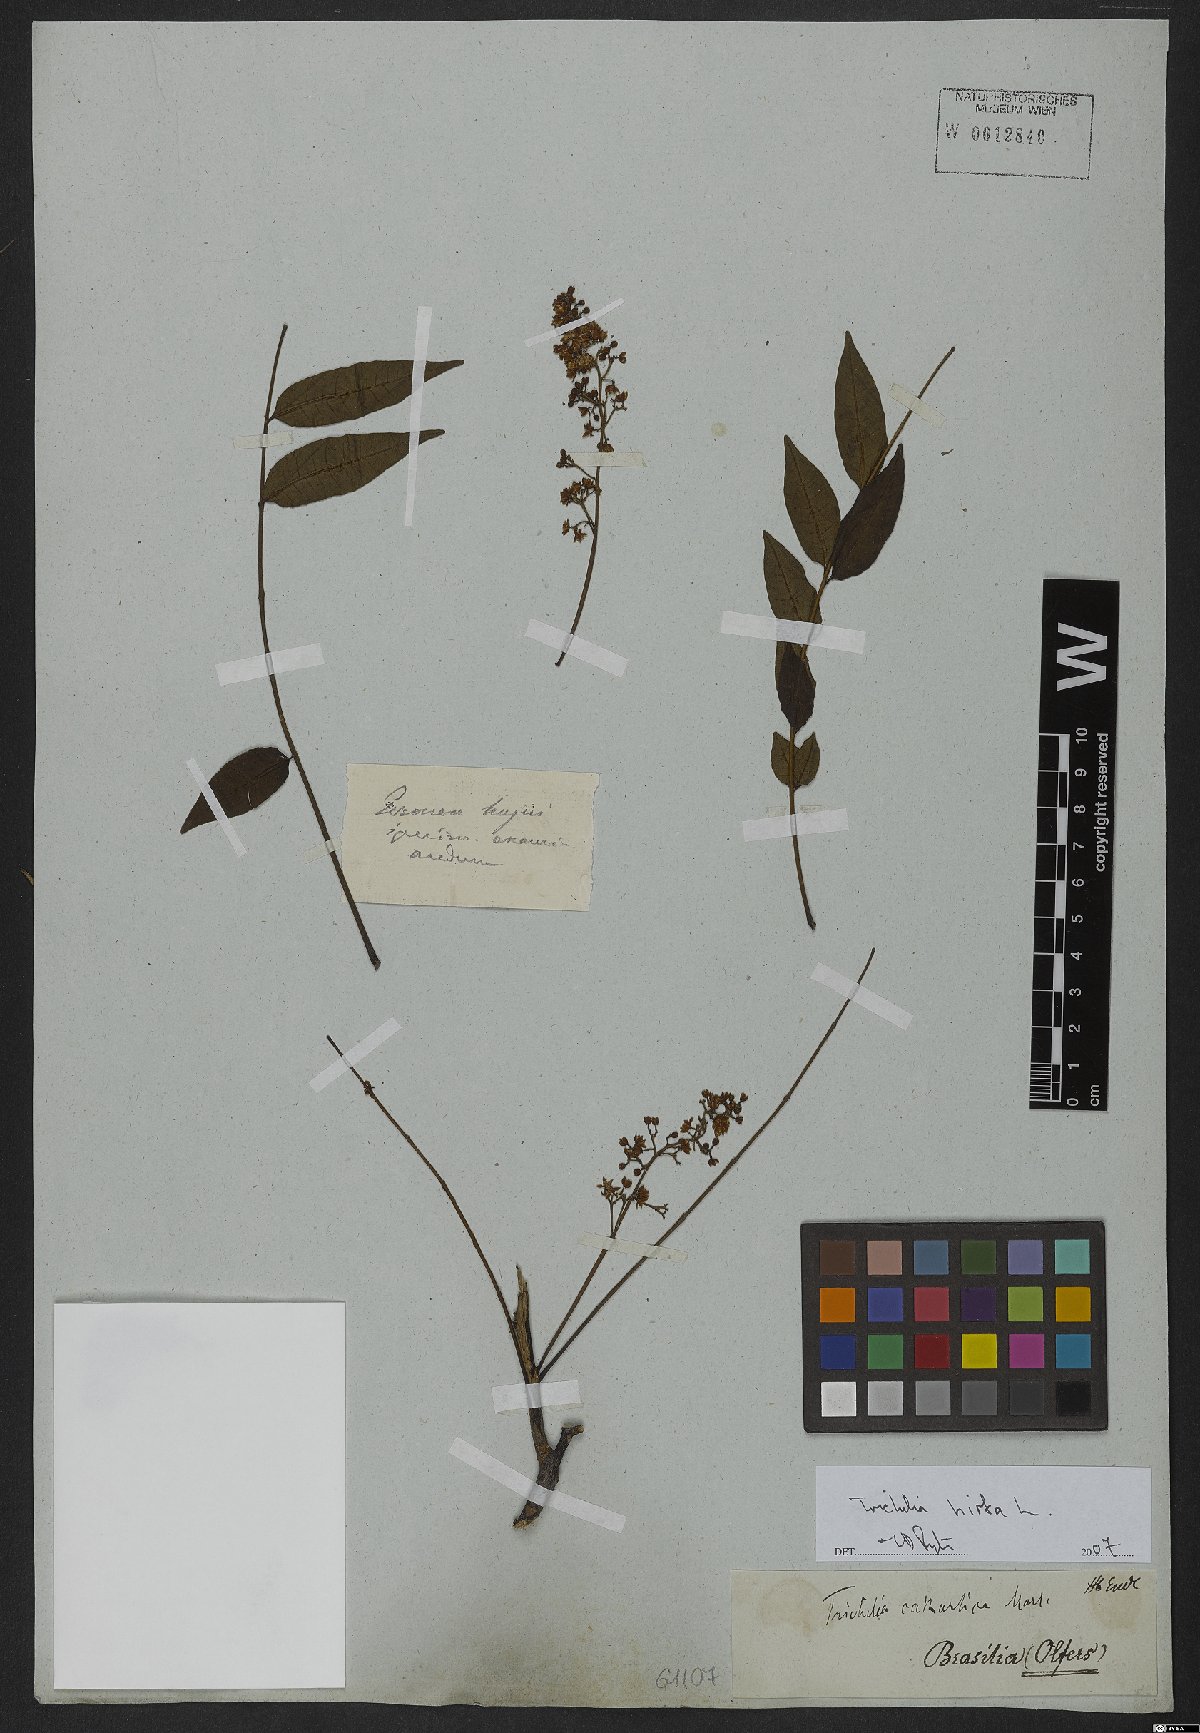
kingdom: Plantae
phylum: Tracheophyta
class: Magnoliopsida
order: Sapindales
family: Meliaceae
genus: Trichilia
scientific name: Trichilia hirta
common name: Red-cedar
